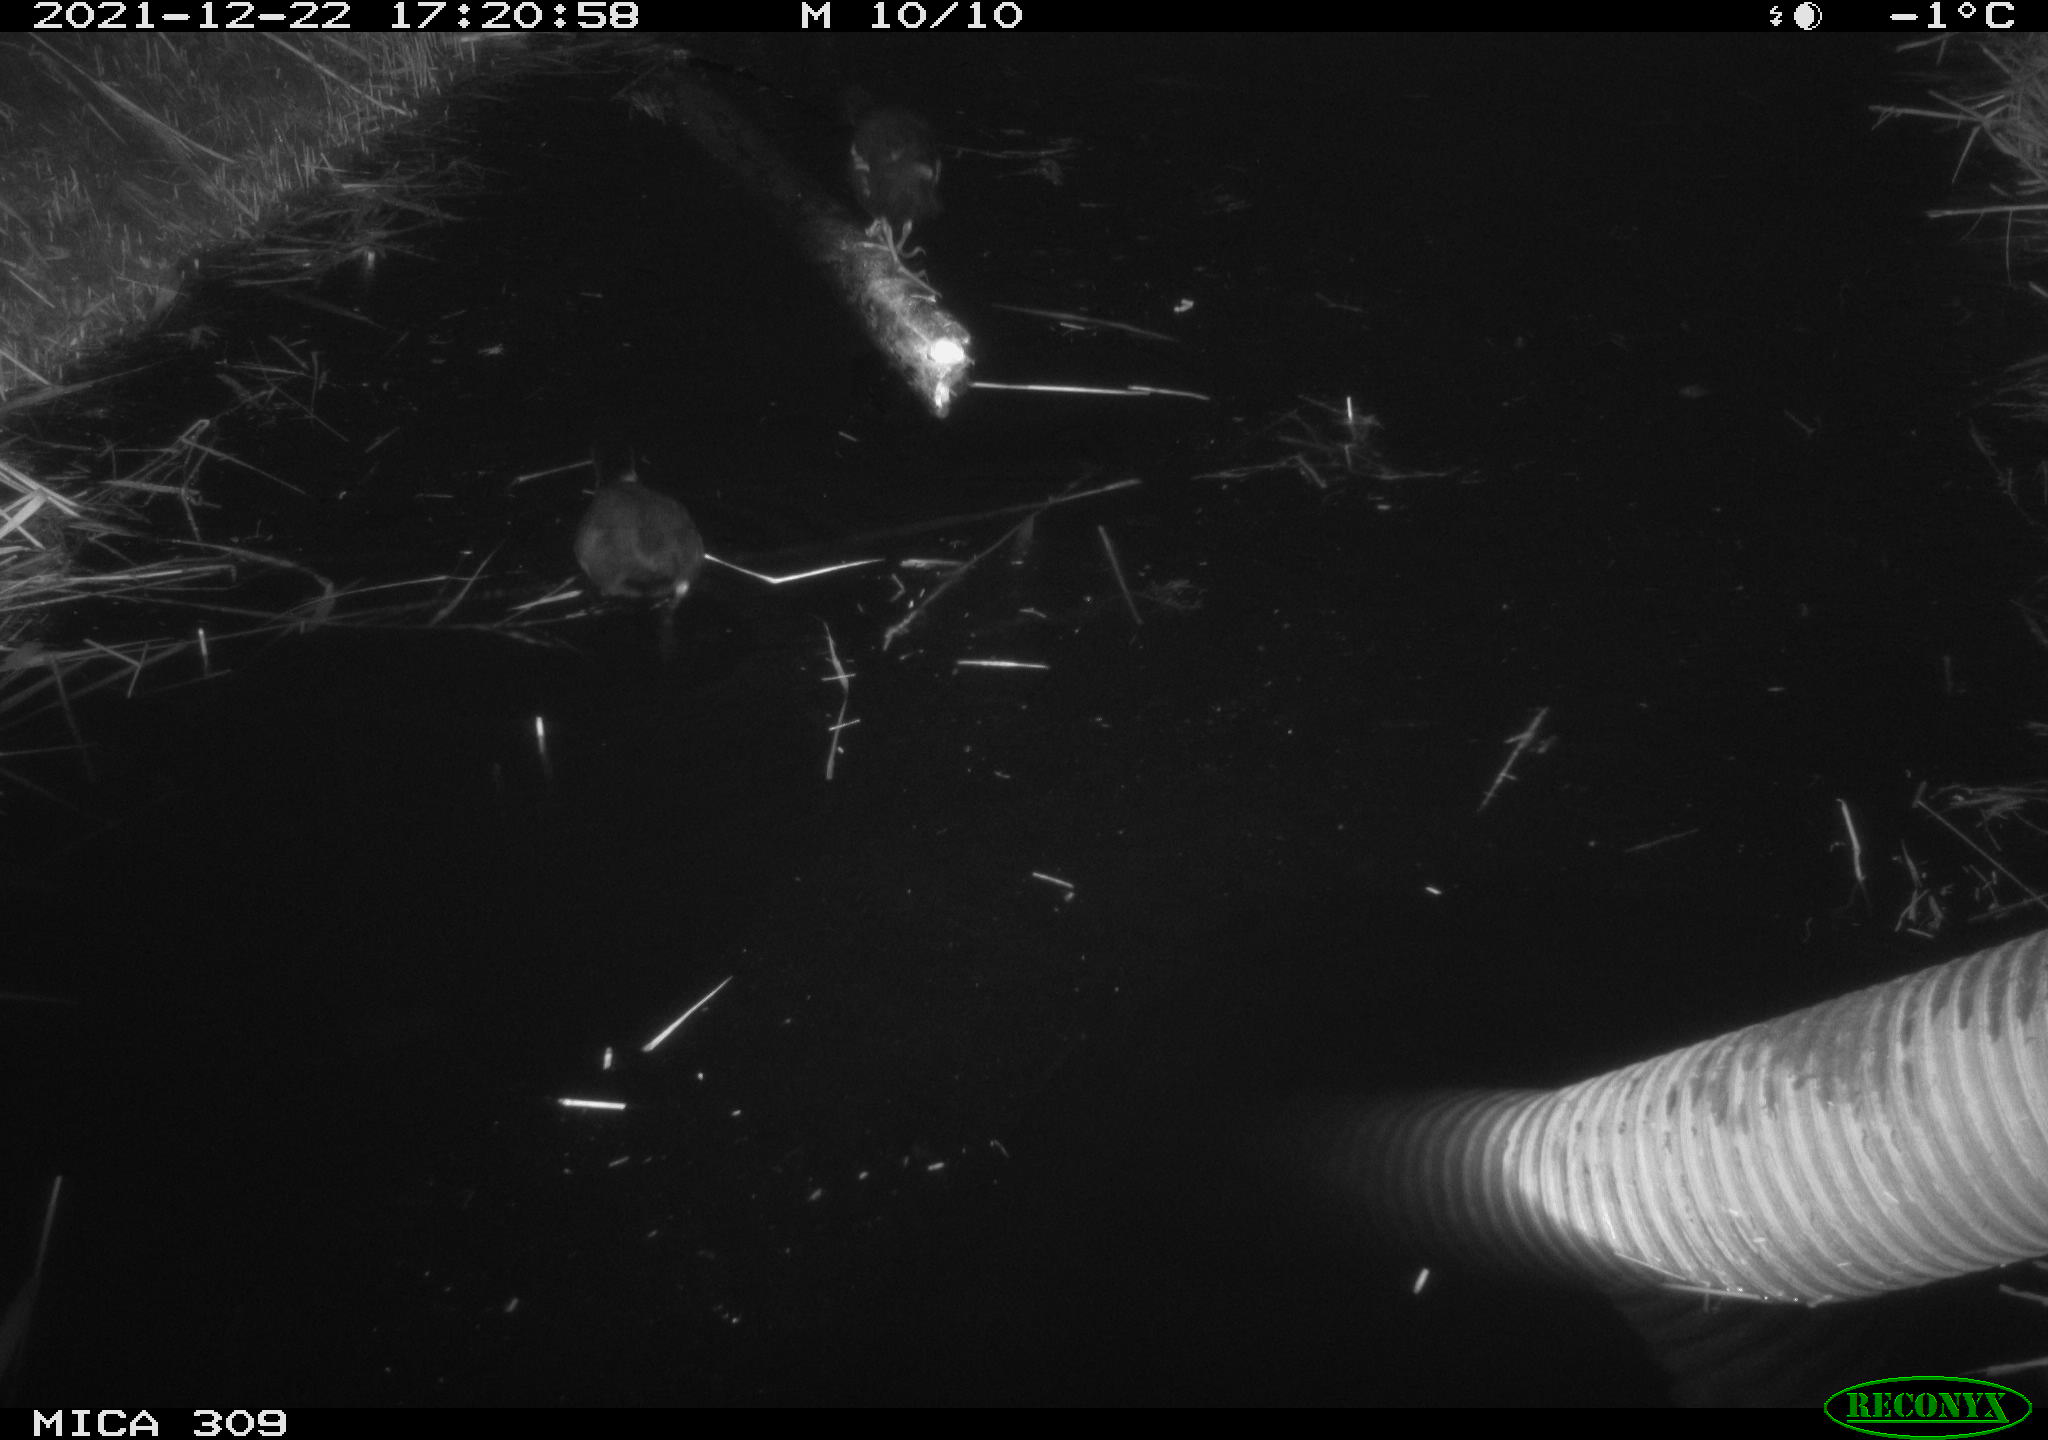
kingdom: Animalia
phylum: Chordata
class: Aves
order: Gruiformes
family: Rallidae
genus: Gallinula
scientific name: Gallinula chloropus
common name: Common moorhen
